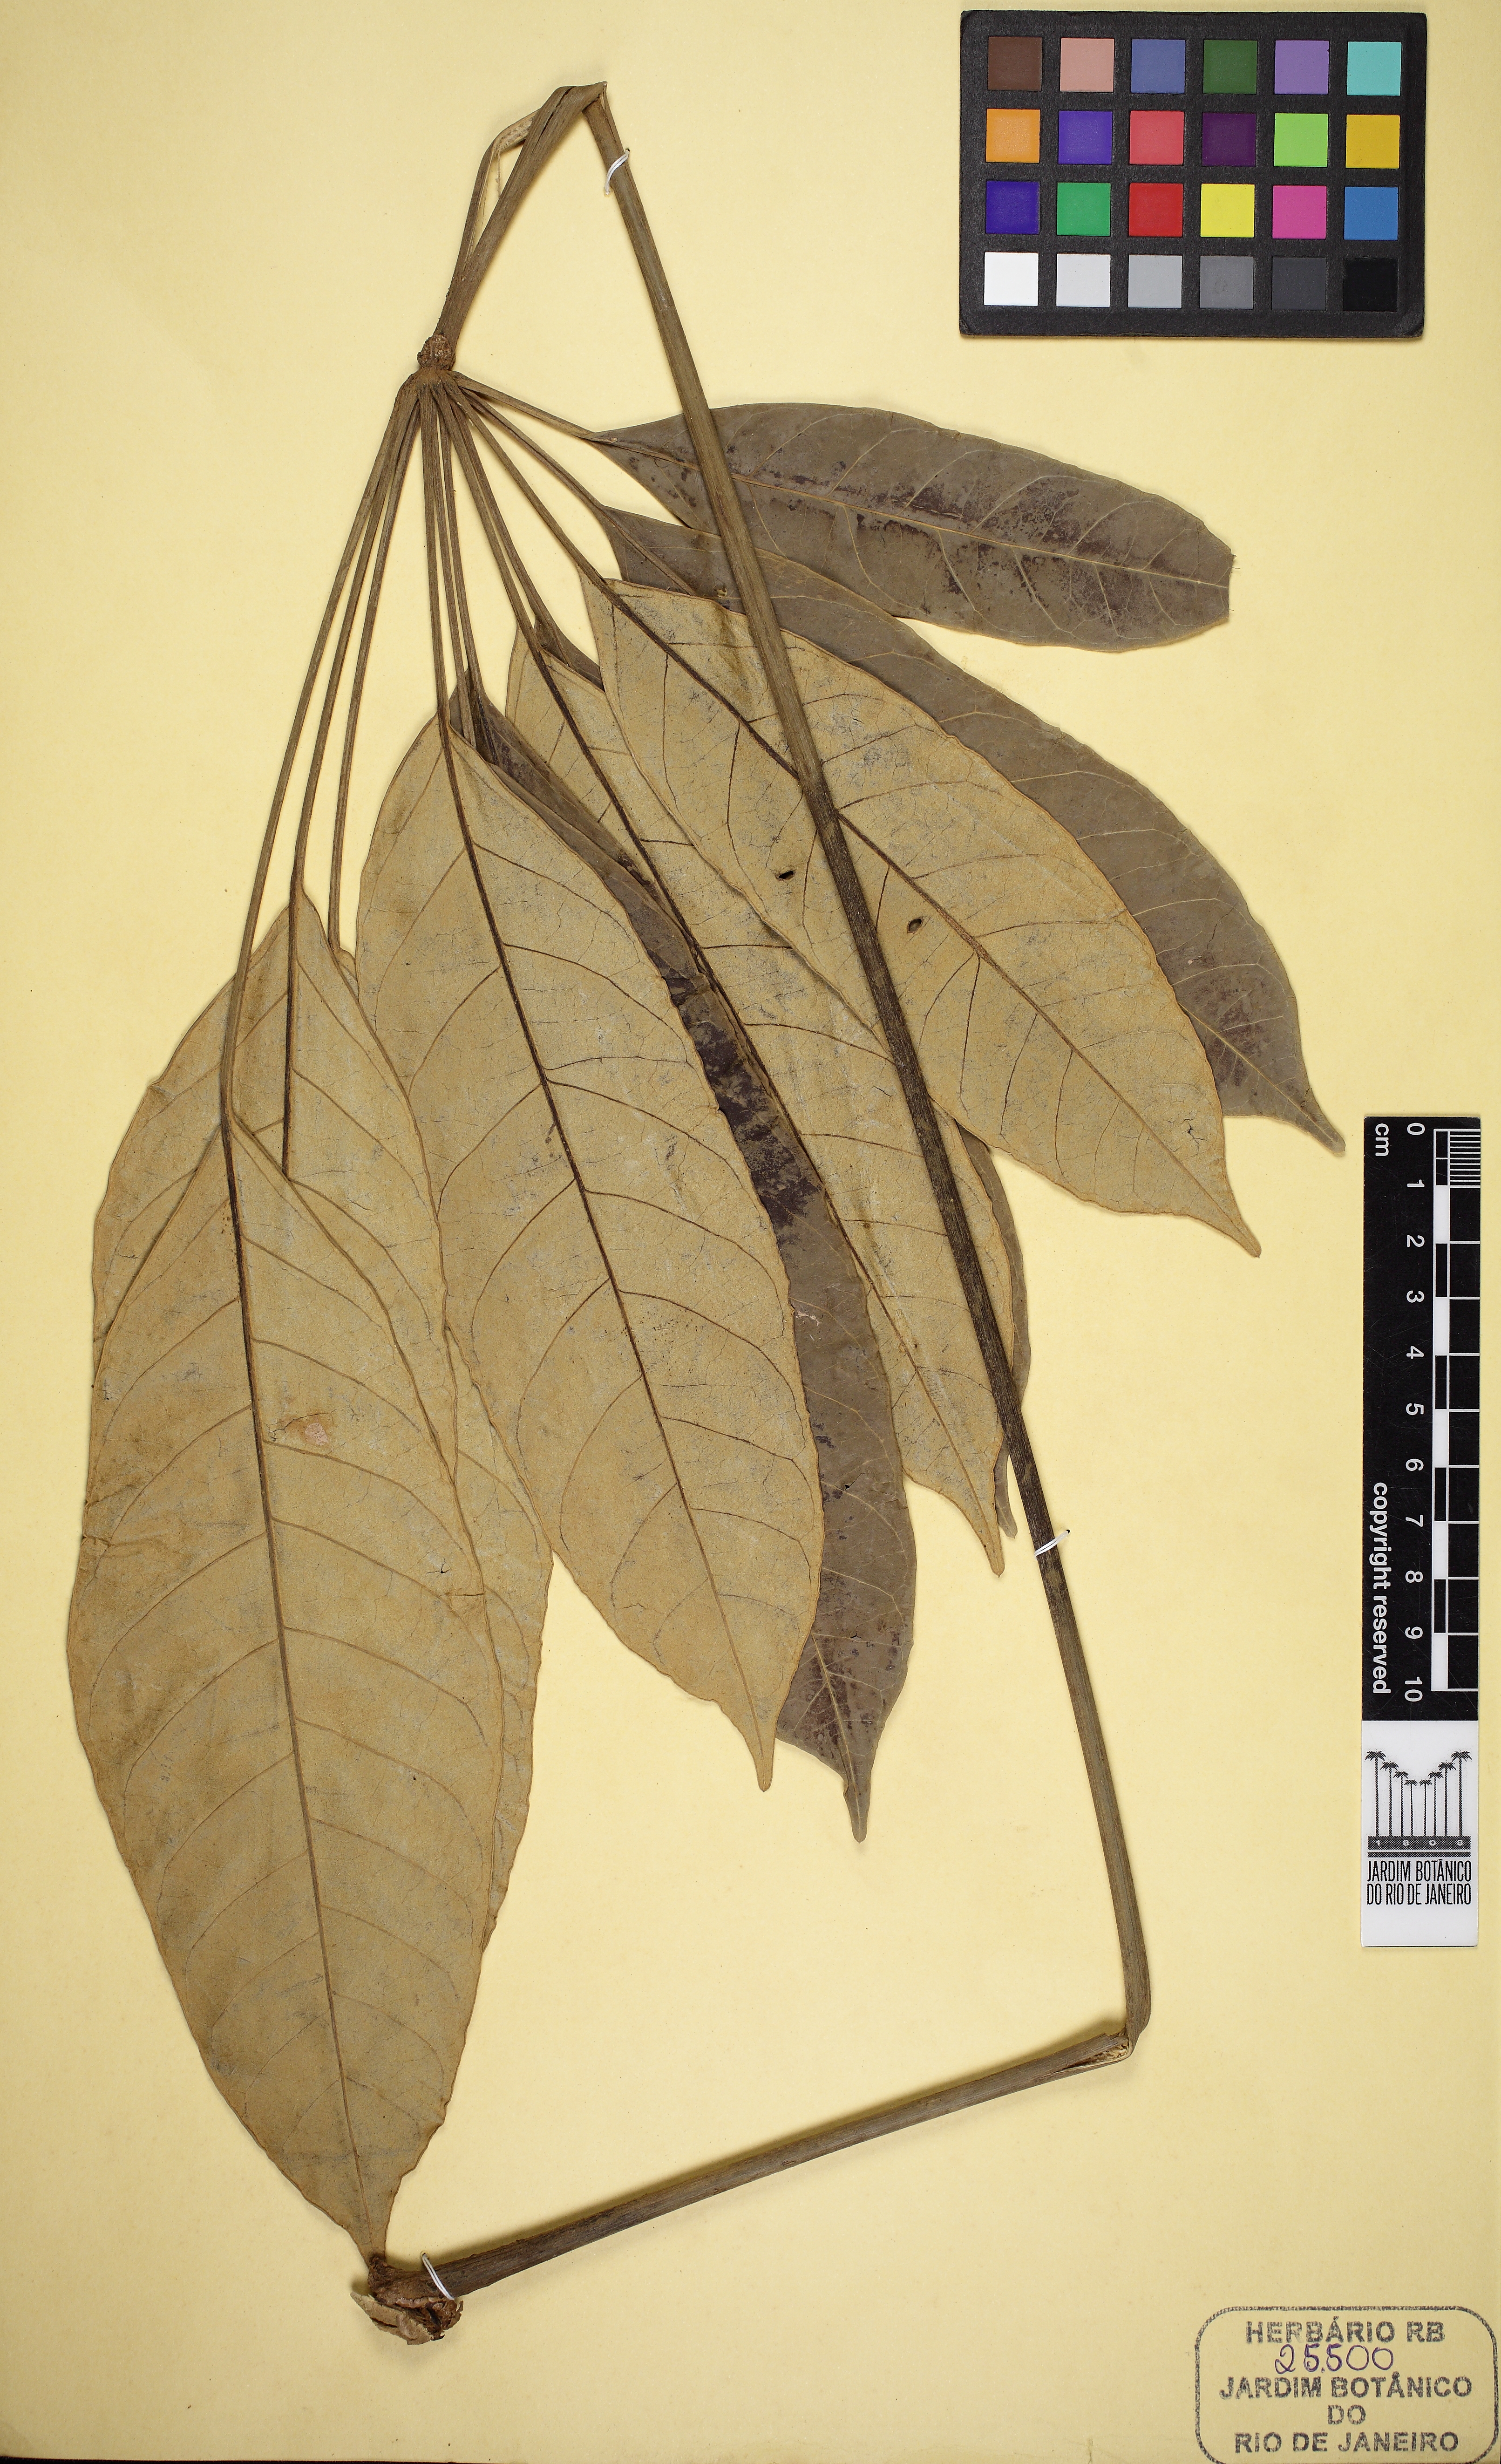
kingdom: Plantae
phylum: Tracheophyta
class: Magnoliopsida
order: Apiales
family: Araliaceae
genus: Didymopanax
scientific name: Didymopanax umbrosus
